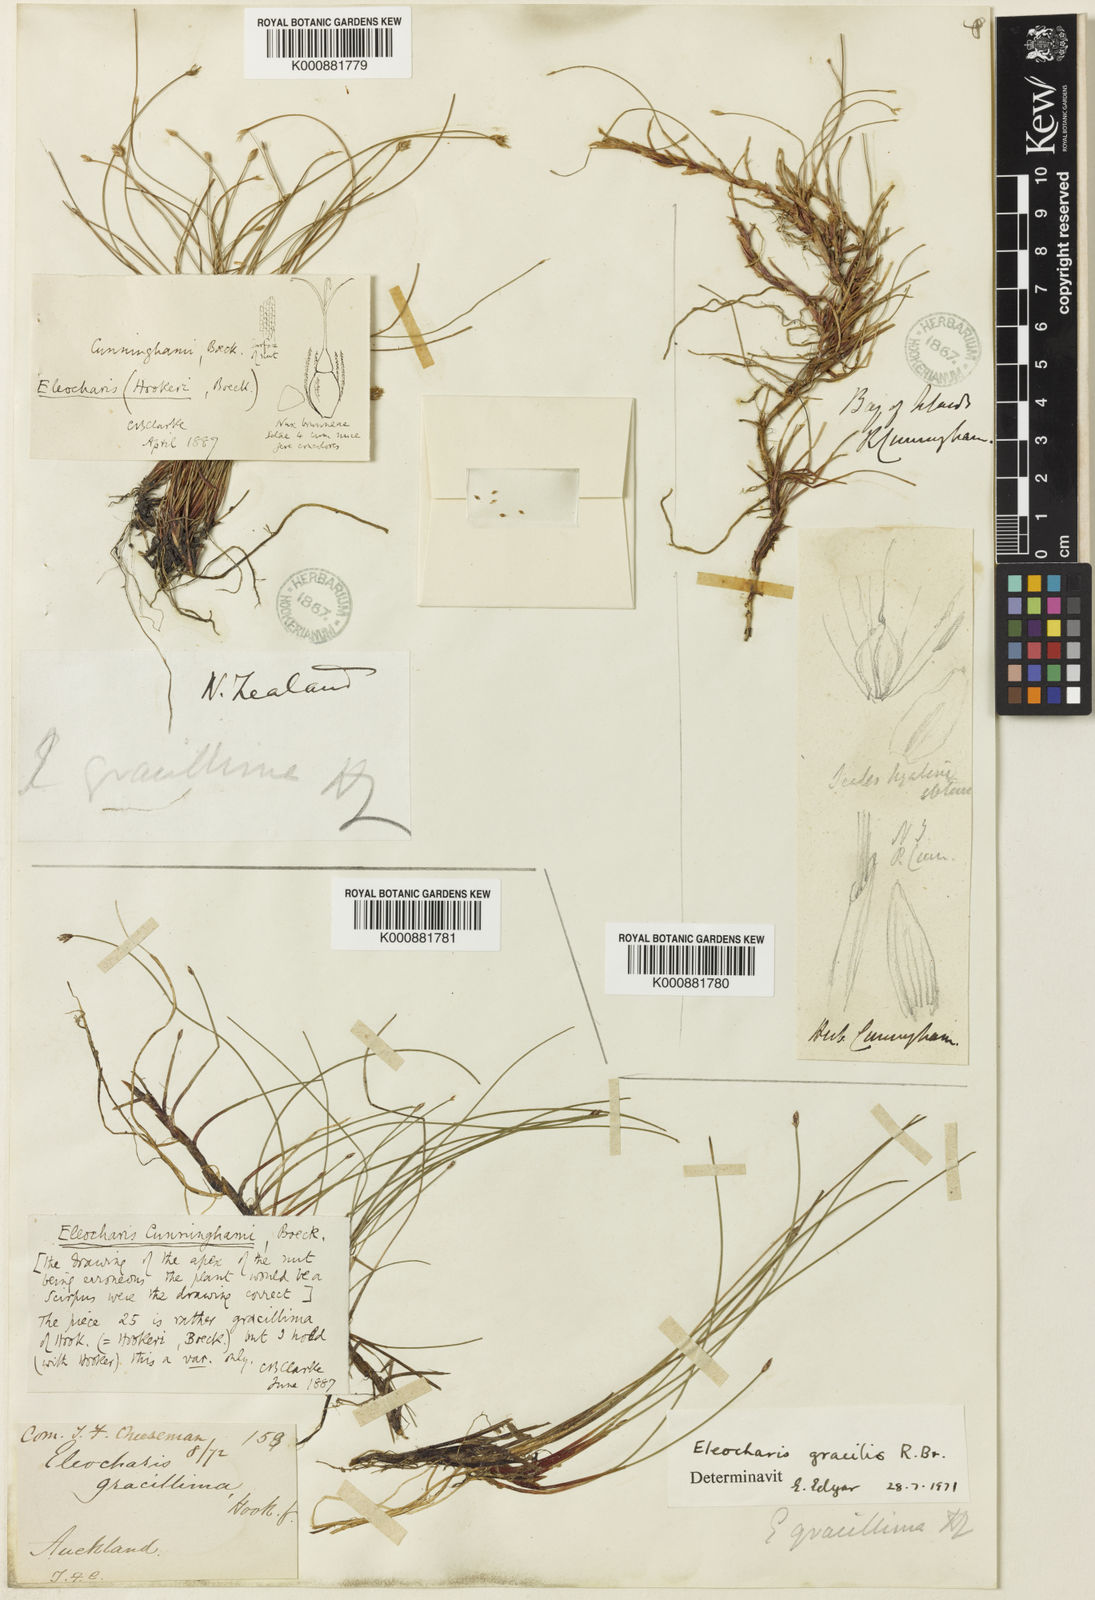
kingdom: Plantae
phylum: Tracheophyta
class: Liliopsida
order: Poales
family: Cyperaceae
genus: Eleocharis
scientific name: Eleocharis gracilis
